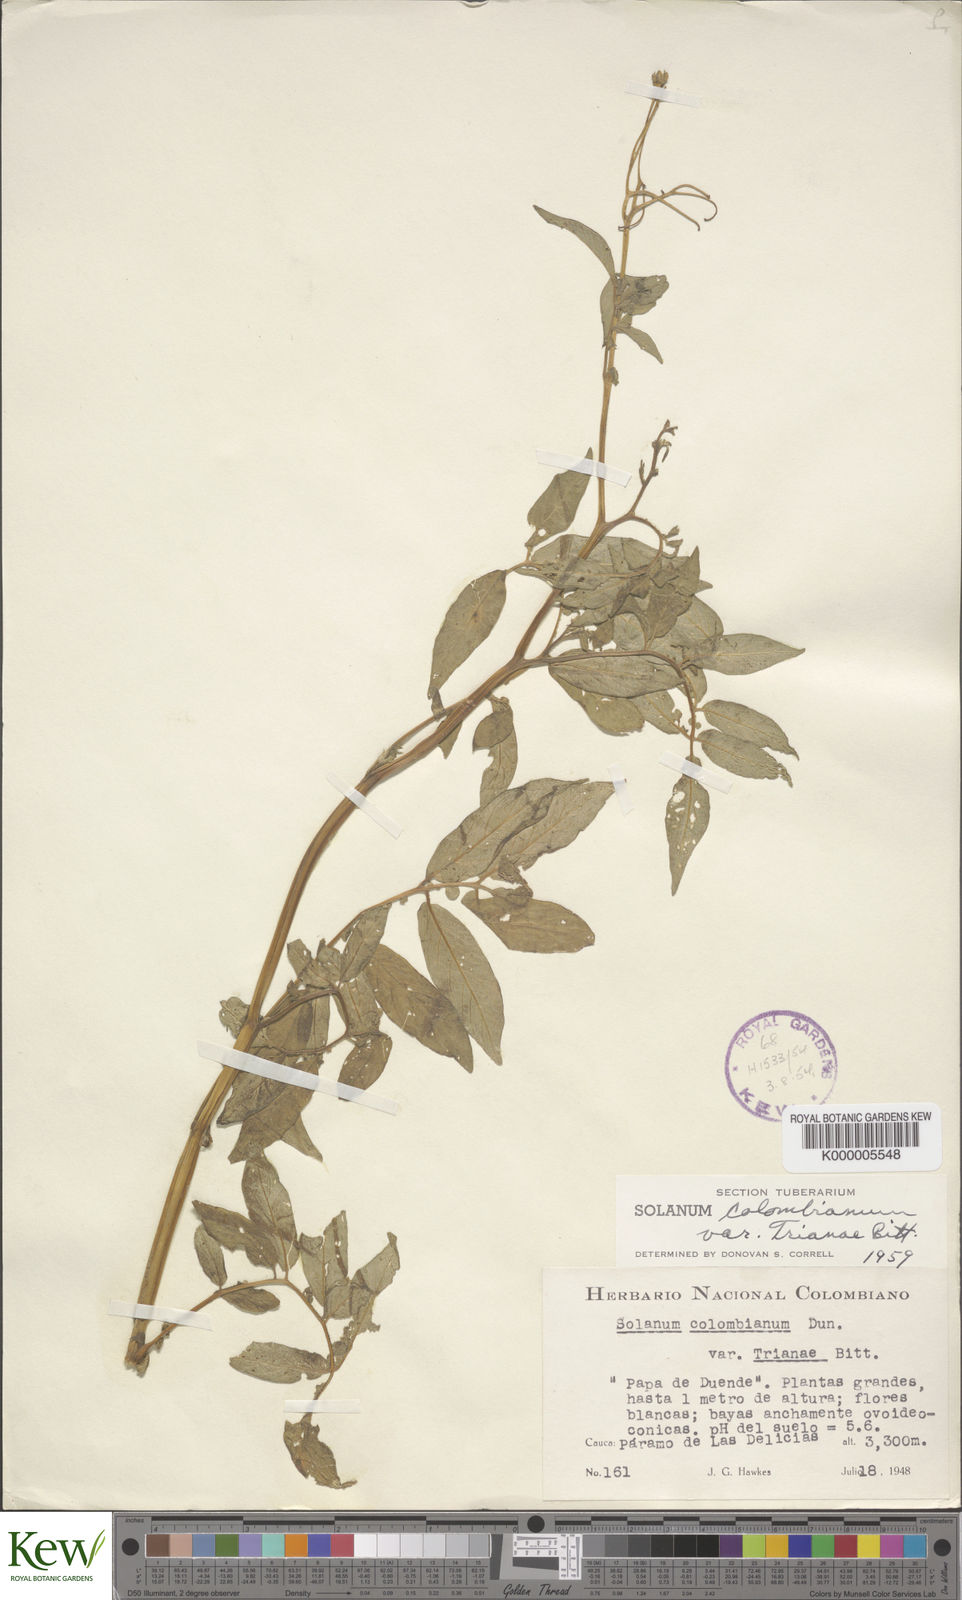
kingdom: Plantae
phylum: Tracheophyta
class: Magnoliopsida
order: Solanales
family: Solanaceae
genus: Solanum
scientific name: Solanum colombianum
